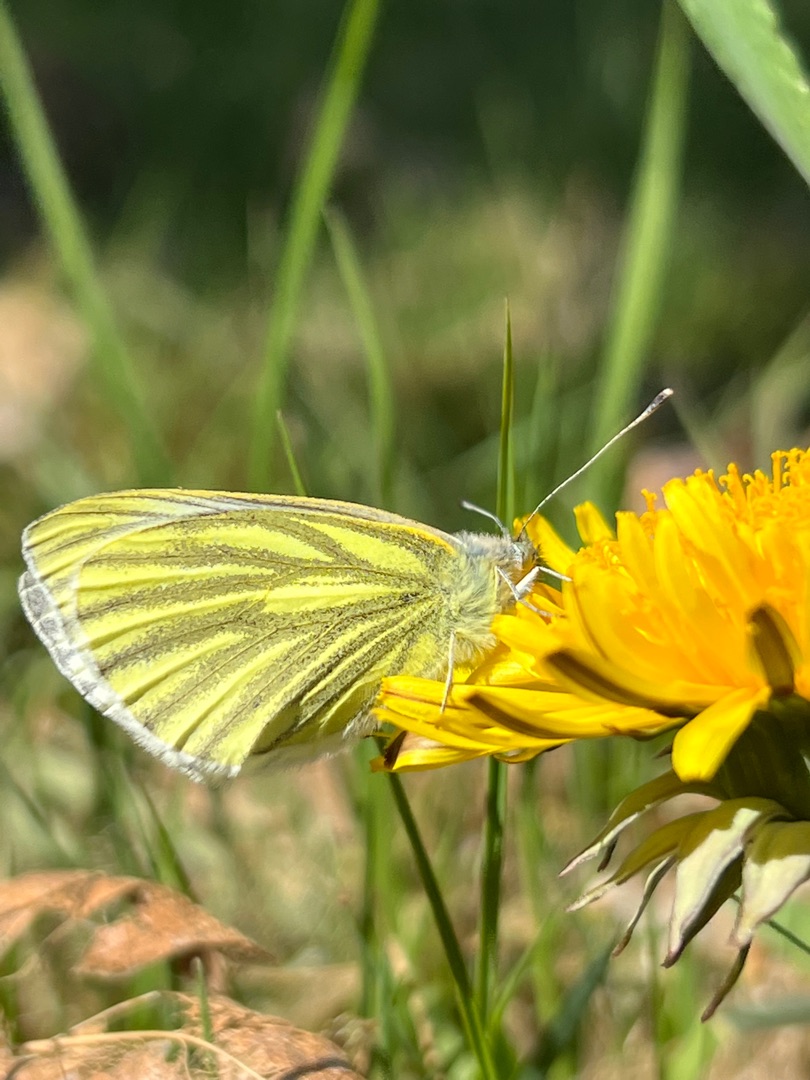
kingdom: Animalia
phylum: Arthropoda
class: Insecta
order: Lepidoptera
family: Pieridae
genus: Pieris
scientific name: Pieris napi
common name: Grønåret kålsommerfugl
